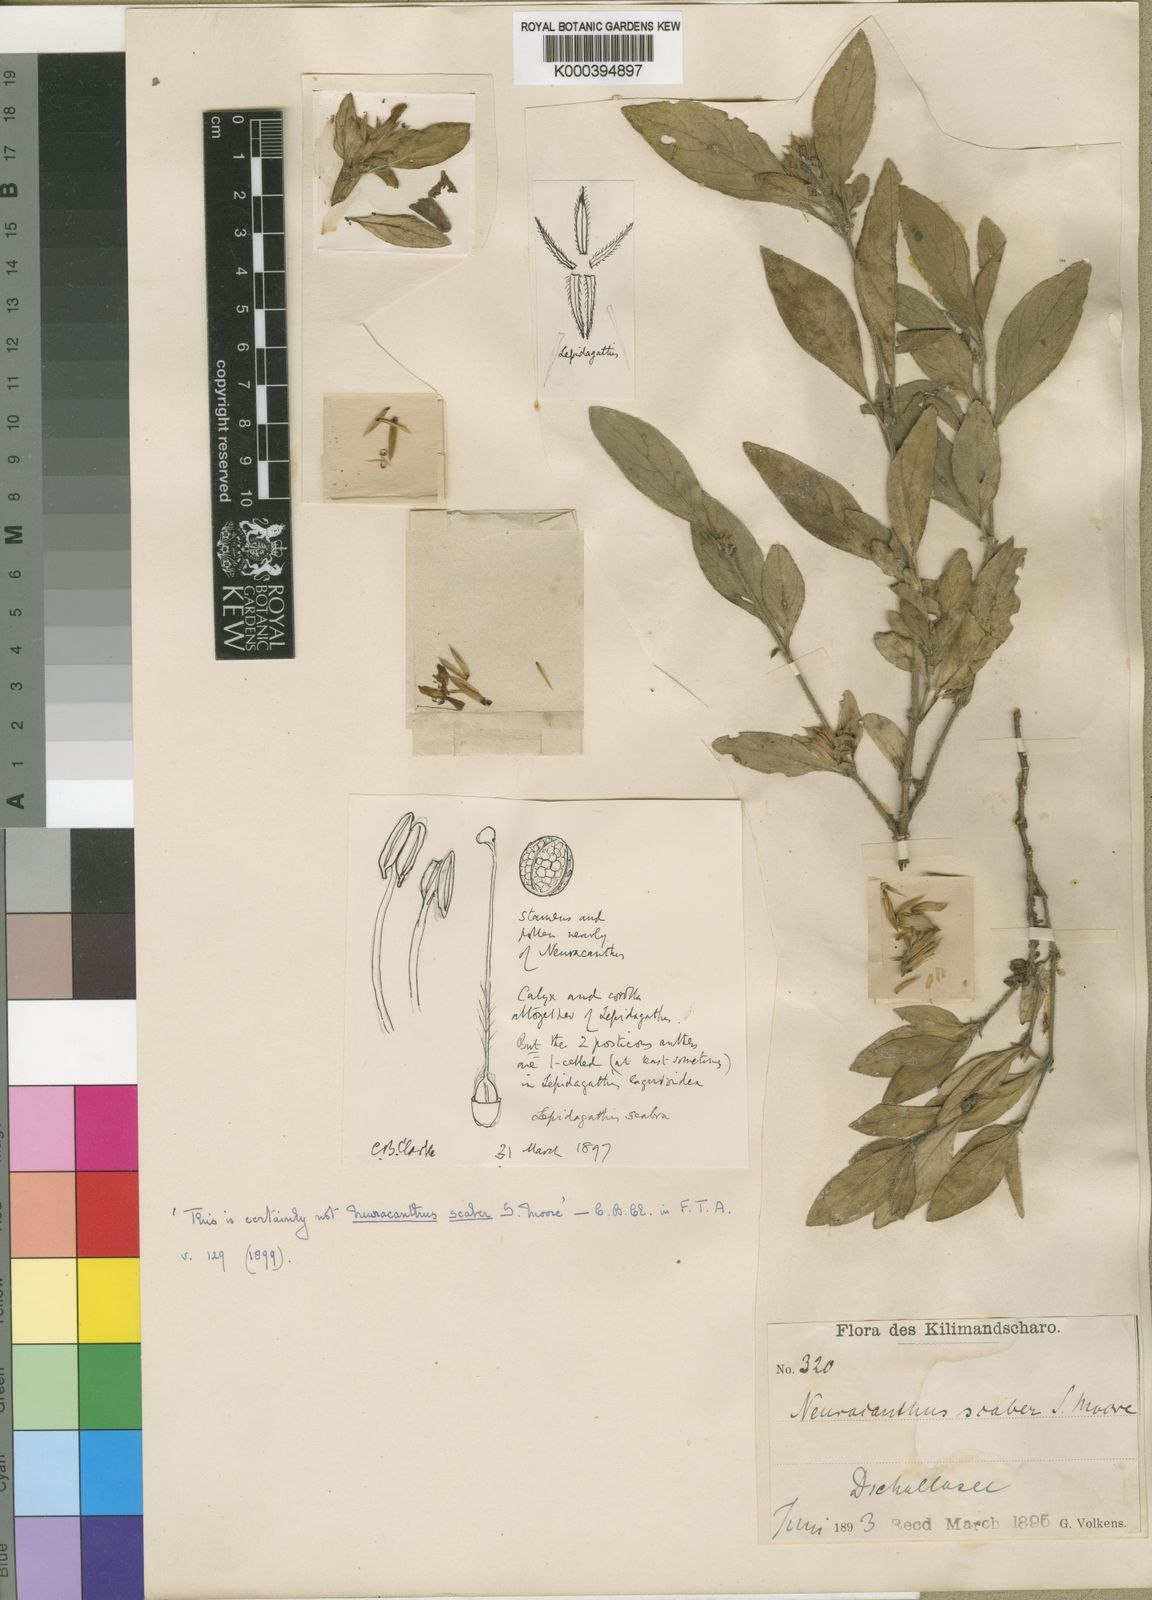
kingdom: Plantae
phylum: Tracheophyta
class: Magnoliopsida
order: Lamiales
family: Acanthaceae
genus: Lepidagathis
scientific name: Lepidagathis scabra
